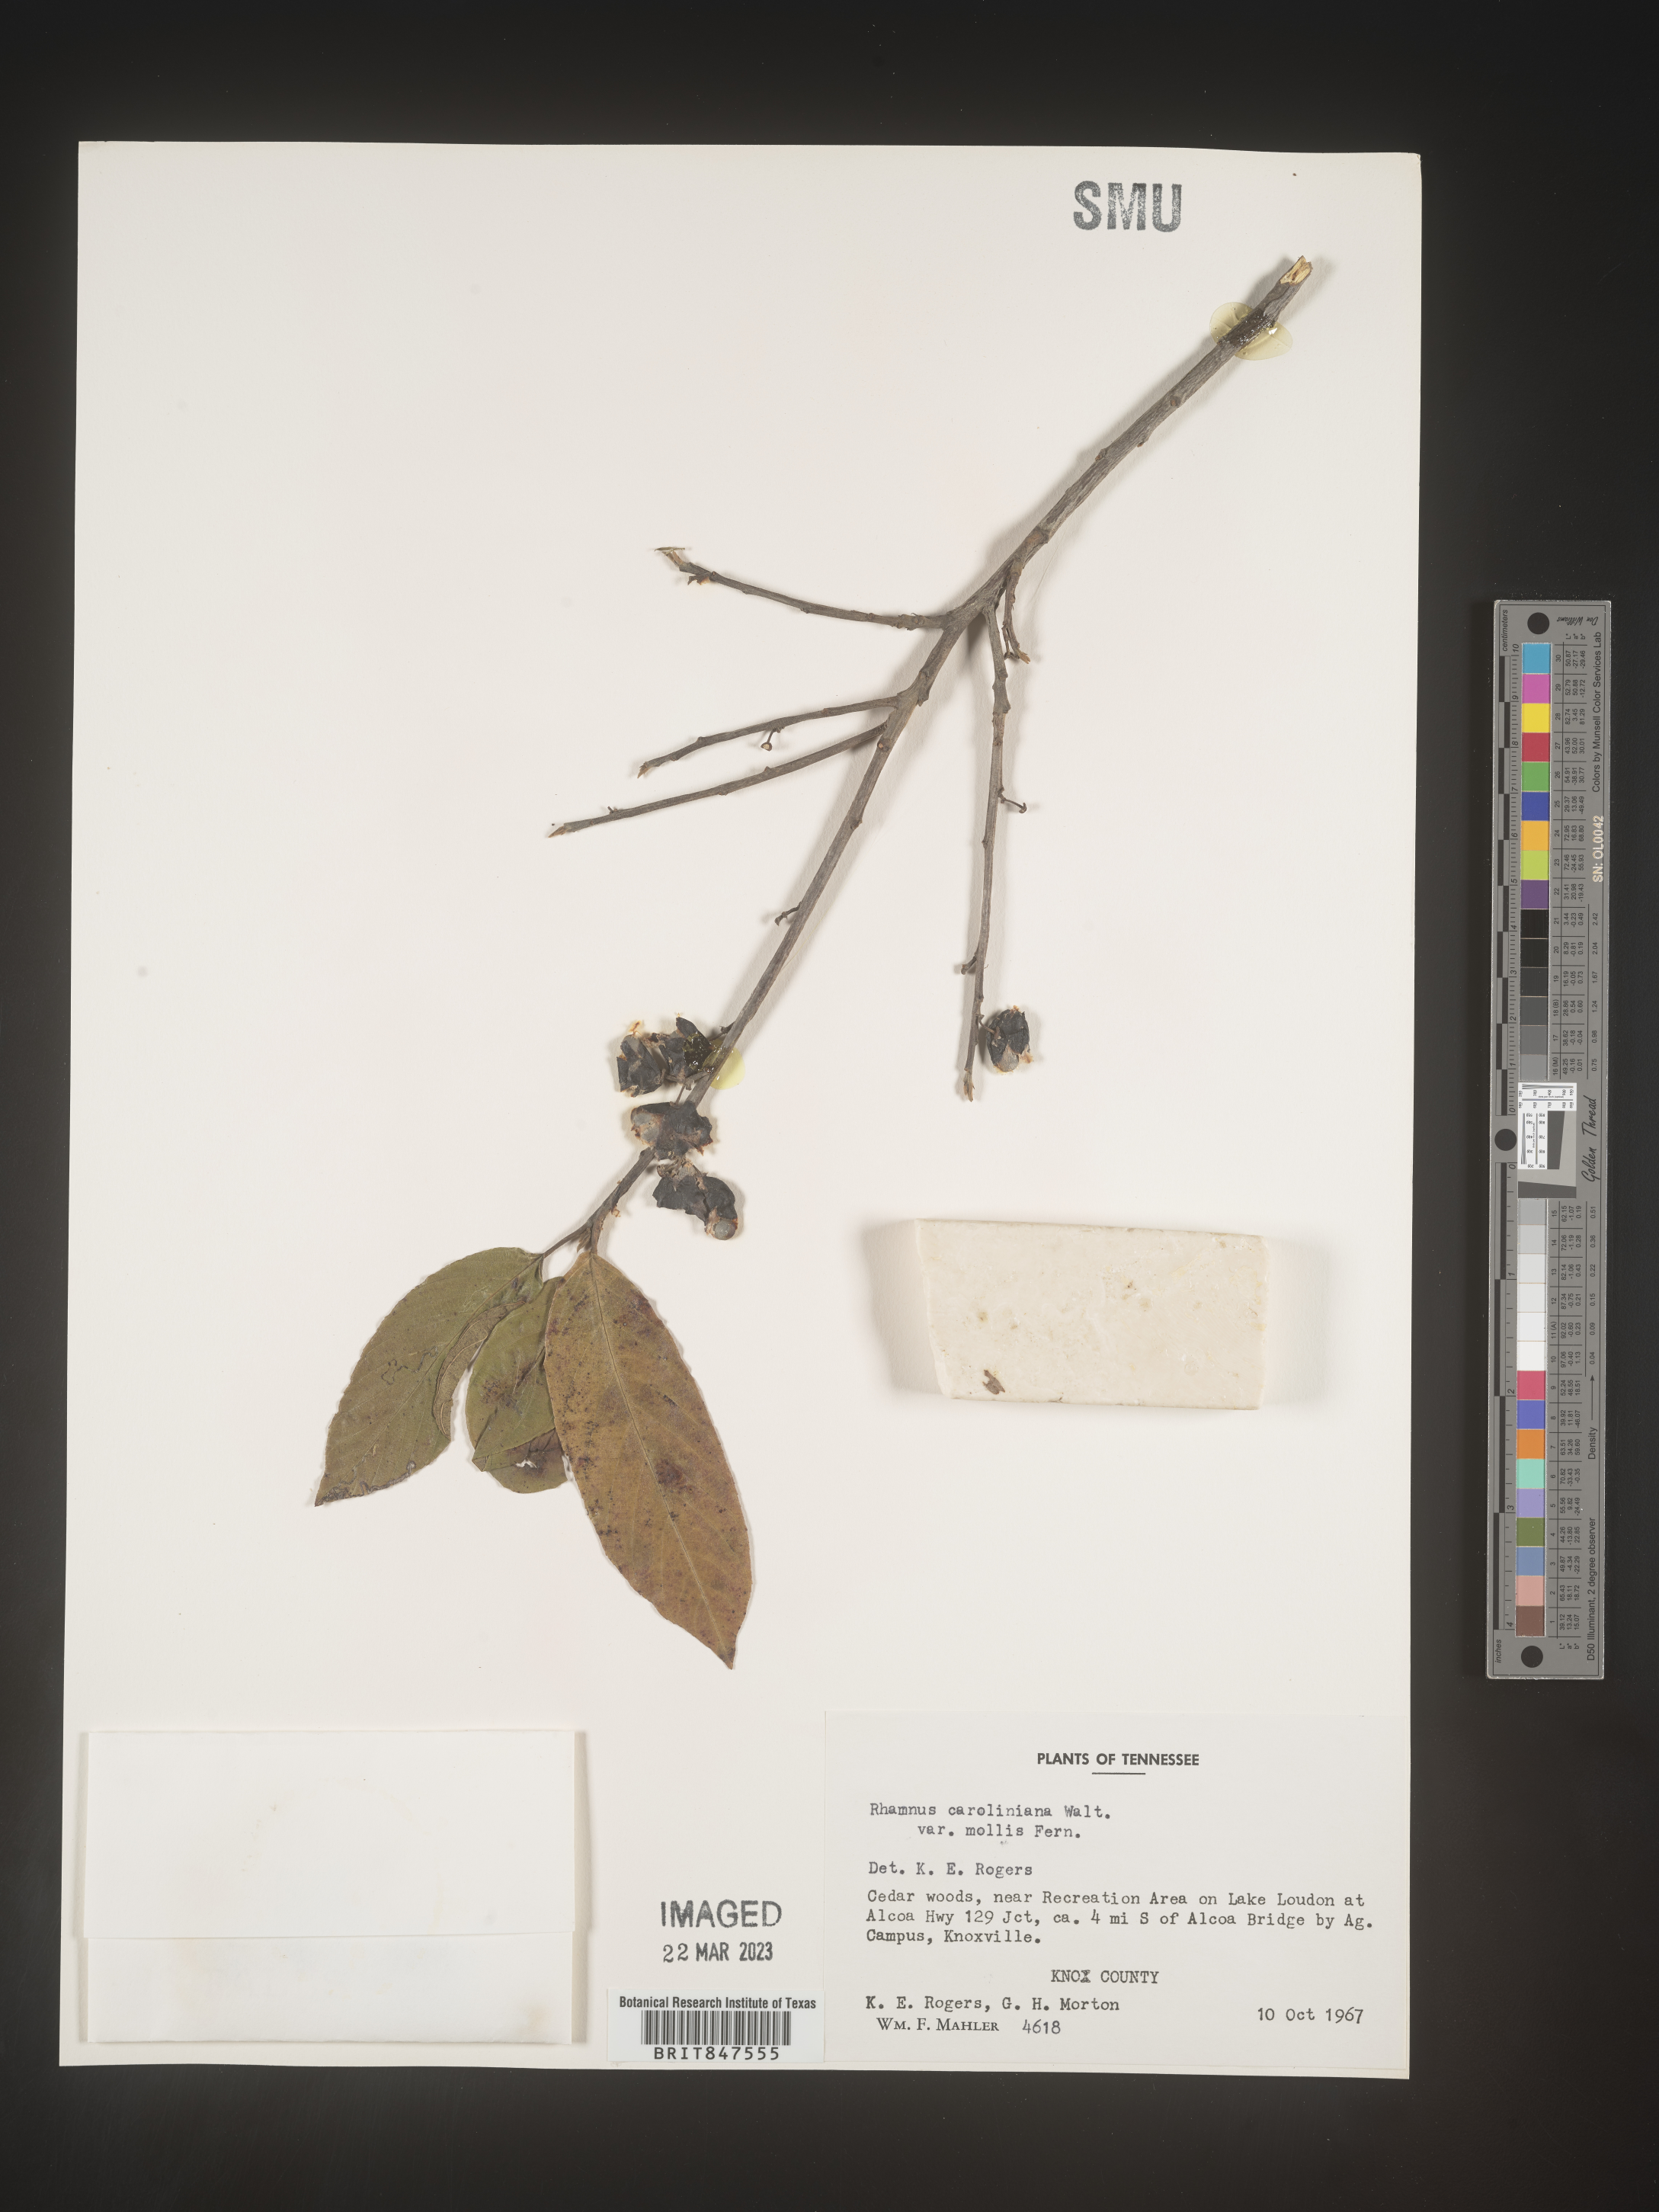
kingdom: Plantae
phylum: Tracheophyta
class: Magnoliopsida
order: Rosales
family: Rhamnaceae
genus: Frangula
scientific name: Frangula caroliniana
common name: Carolina buckthorn
